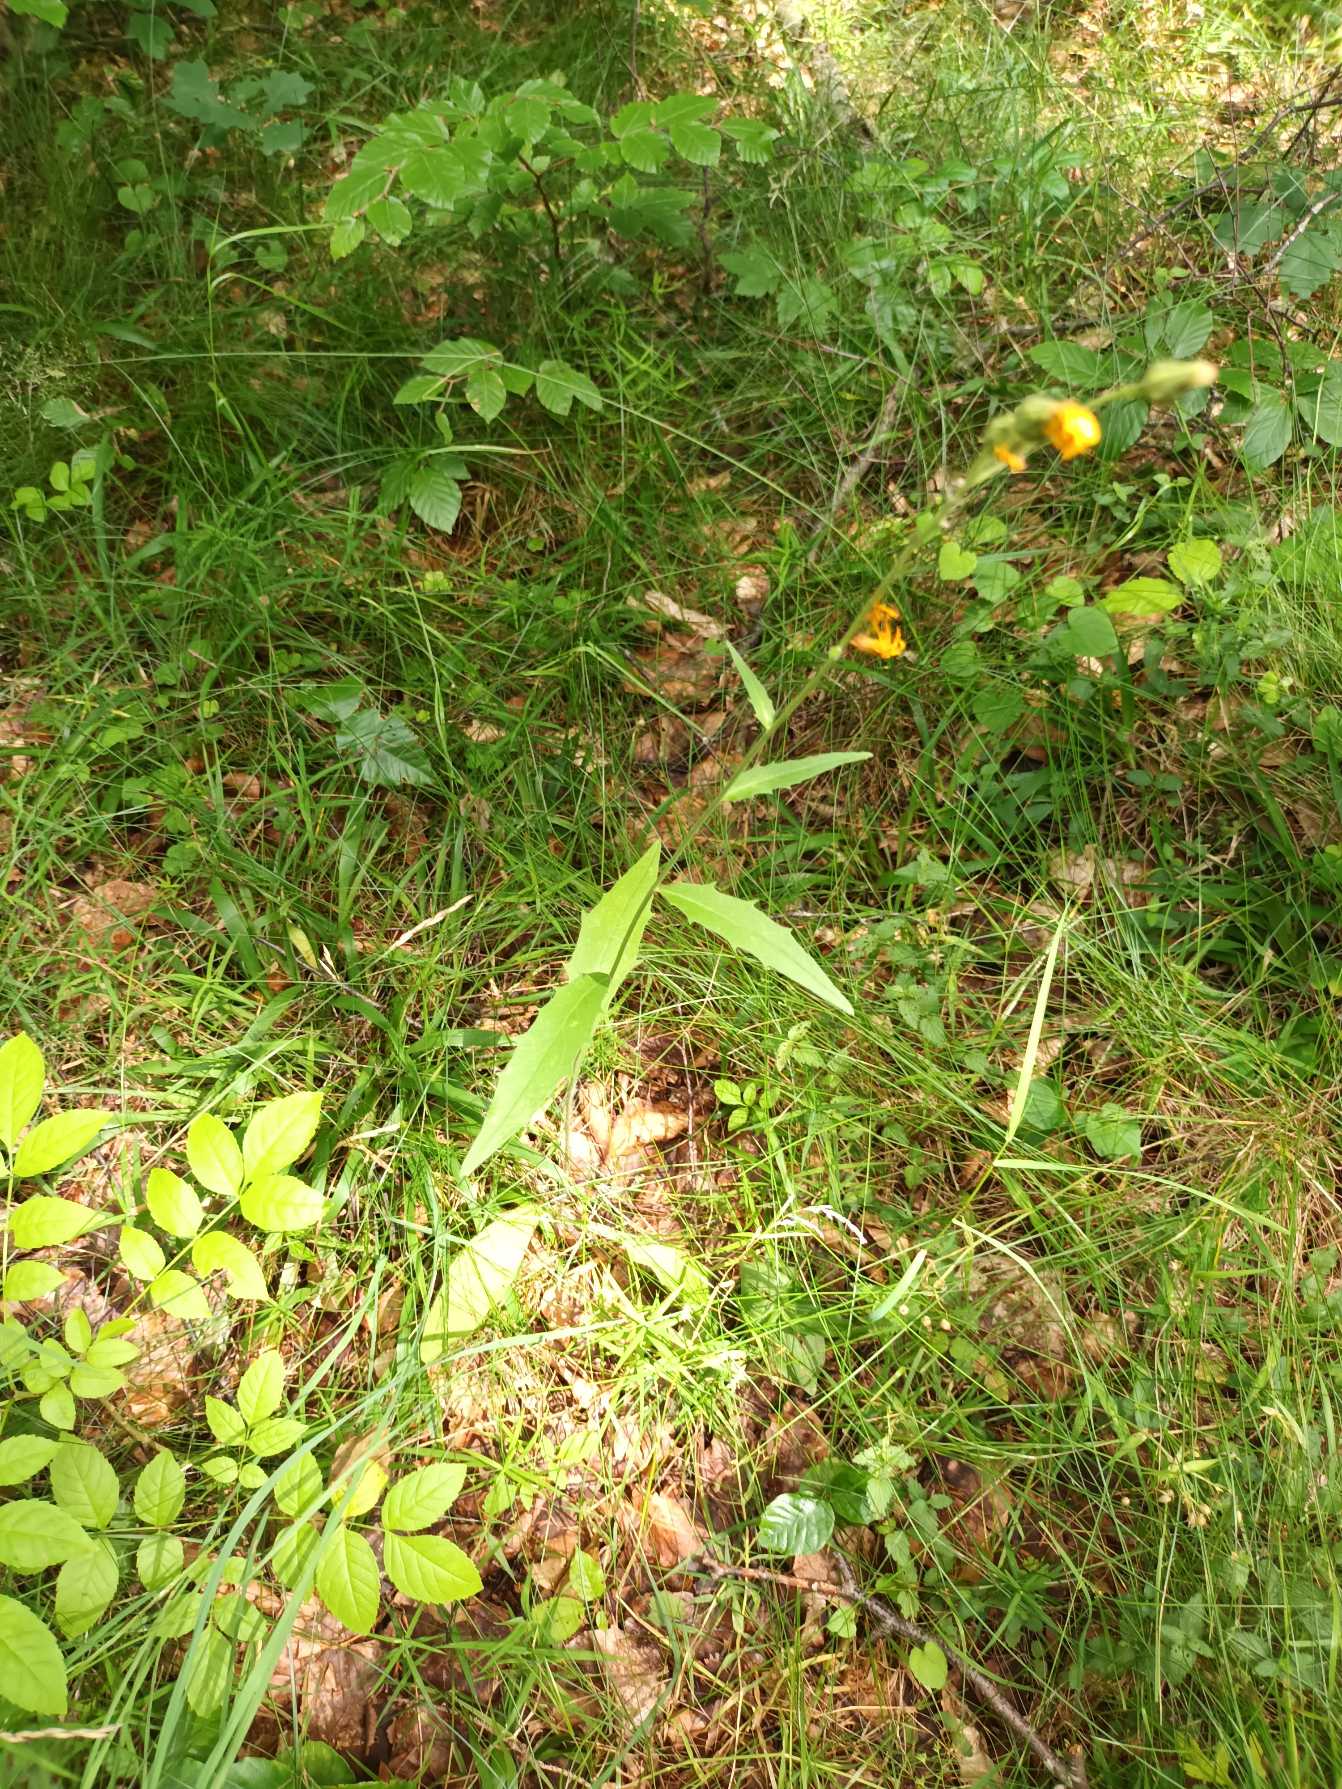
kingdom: Plantae
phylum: Tracheophyta
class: Magnoliopsida
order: Asterales
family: Asteraceae
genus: Hieracium
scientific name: Hieracium
